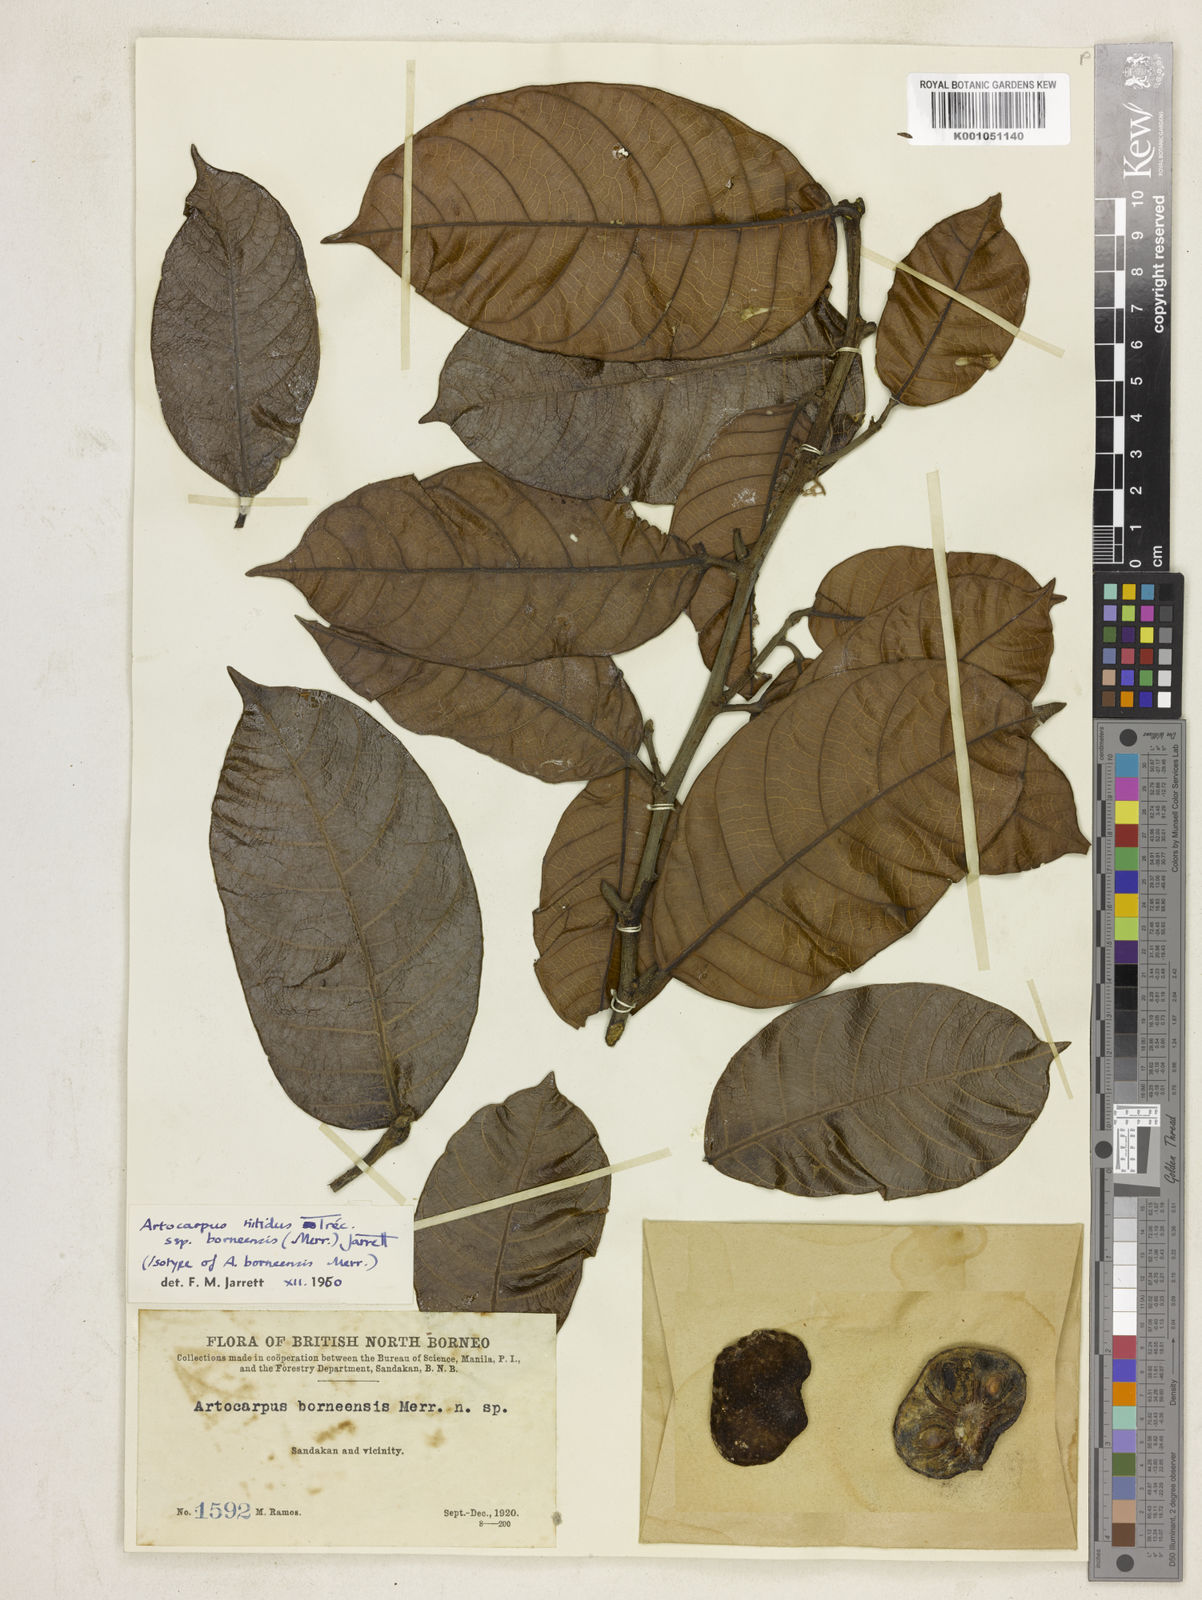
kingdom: Plantae
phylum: Tracheophyta
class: Magnoliopsida
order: Rosales
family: Moraceae
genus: Artocarpus
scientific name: Artocarpus
